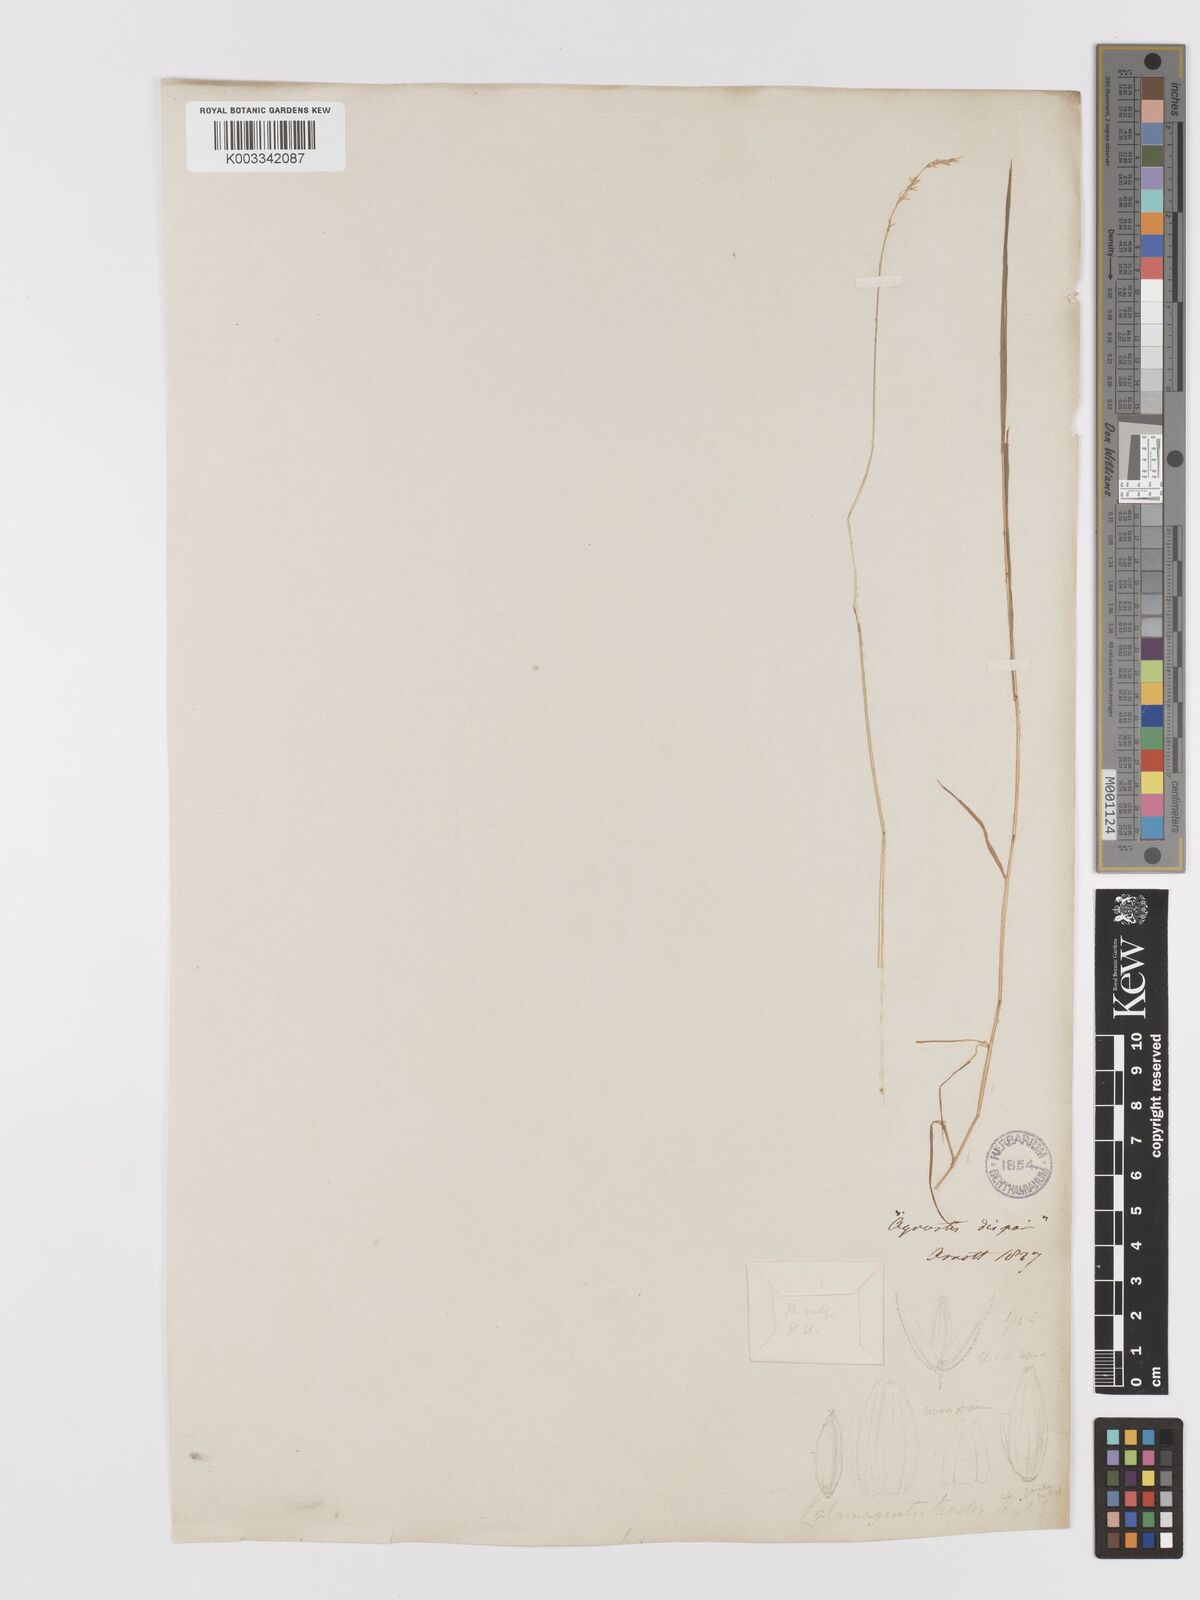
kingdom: Plantae
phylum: Tracheophyta
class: Liliopsida
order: Poales
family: Poaceae
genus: Agrostis
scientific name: Agrostis stolonifera
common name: Creeping bentgrass
